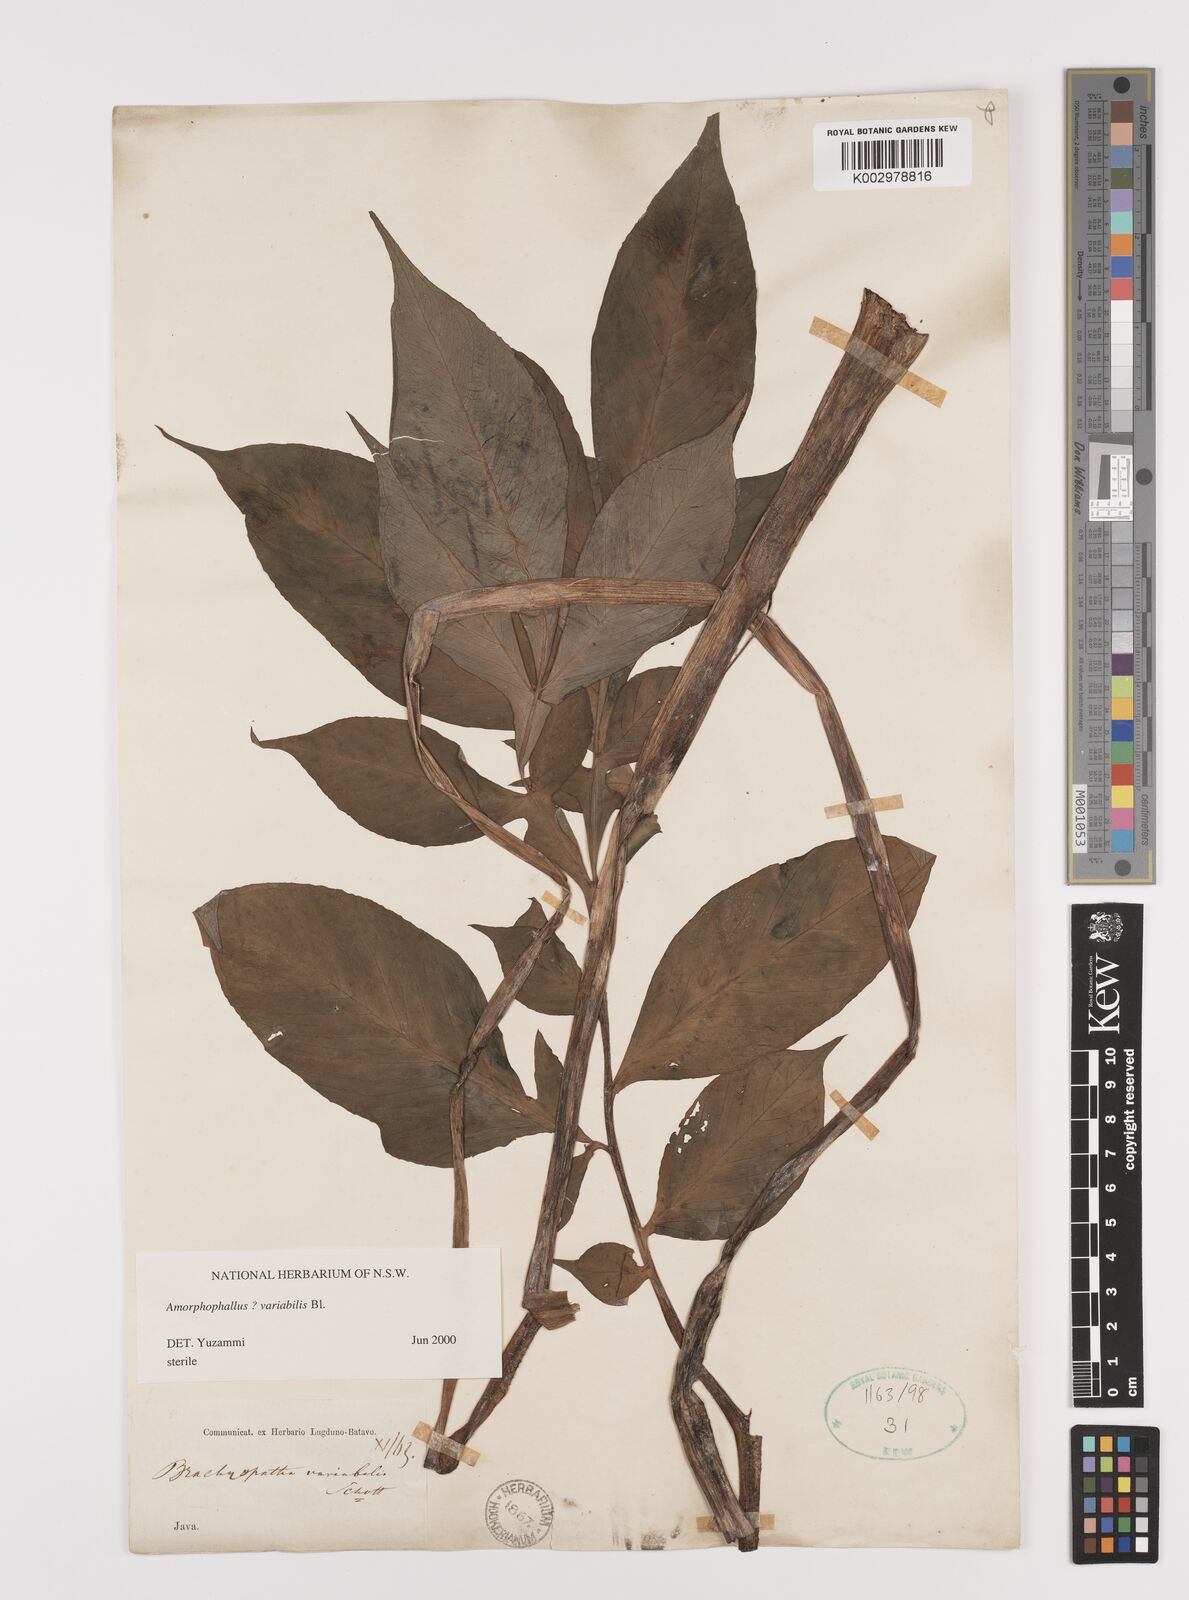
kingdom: Plantae
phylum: Tracheophyta
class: Liliopsida
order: Alismatales
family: Araceae
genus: Amorphophallus
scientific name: Amorphophallus variabilis
